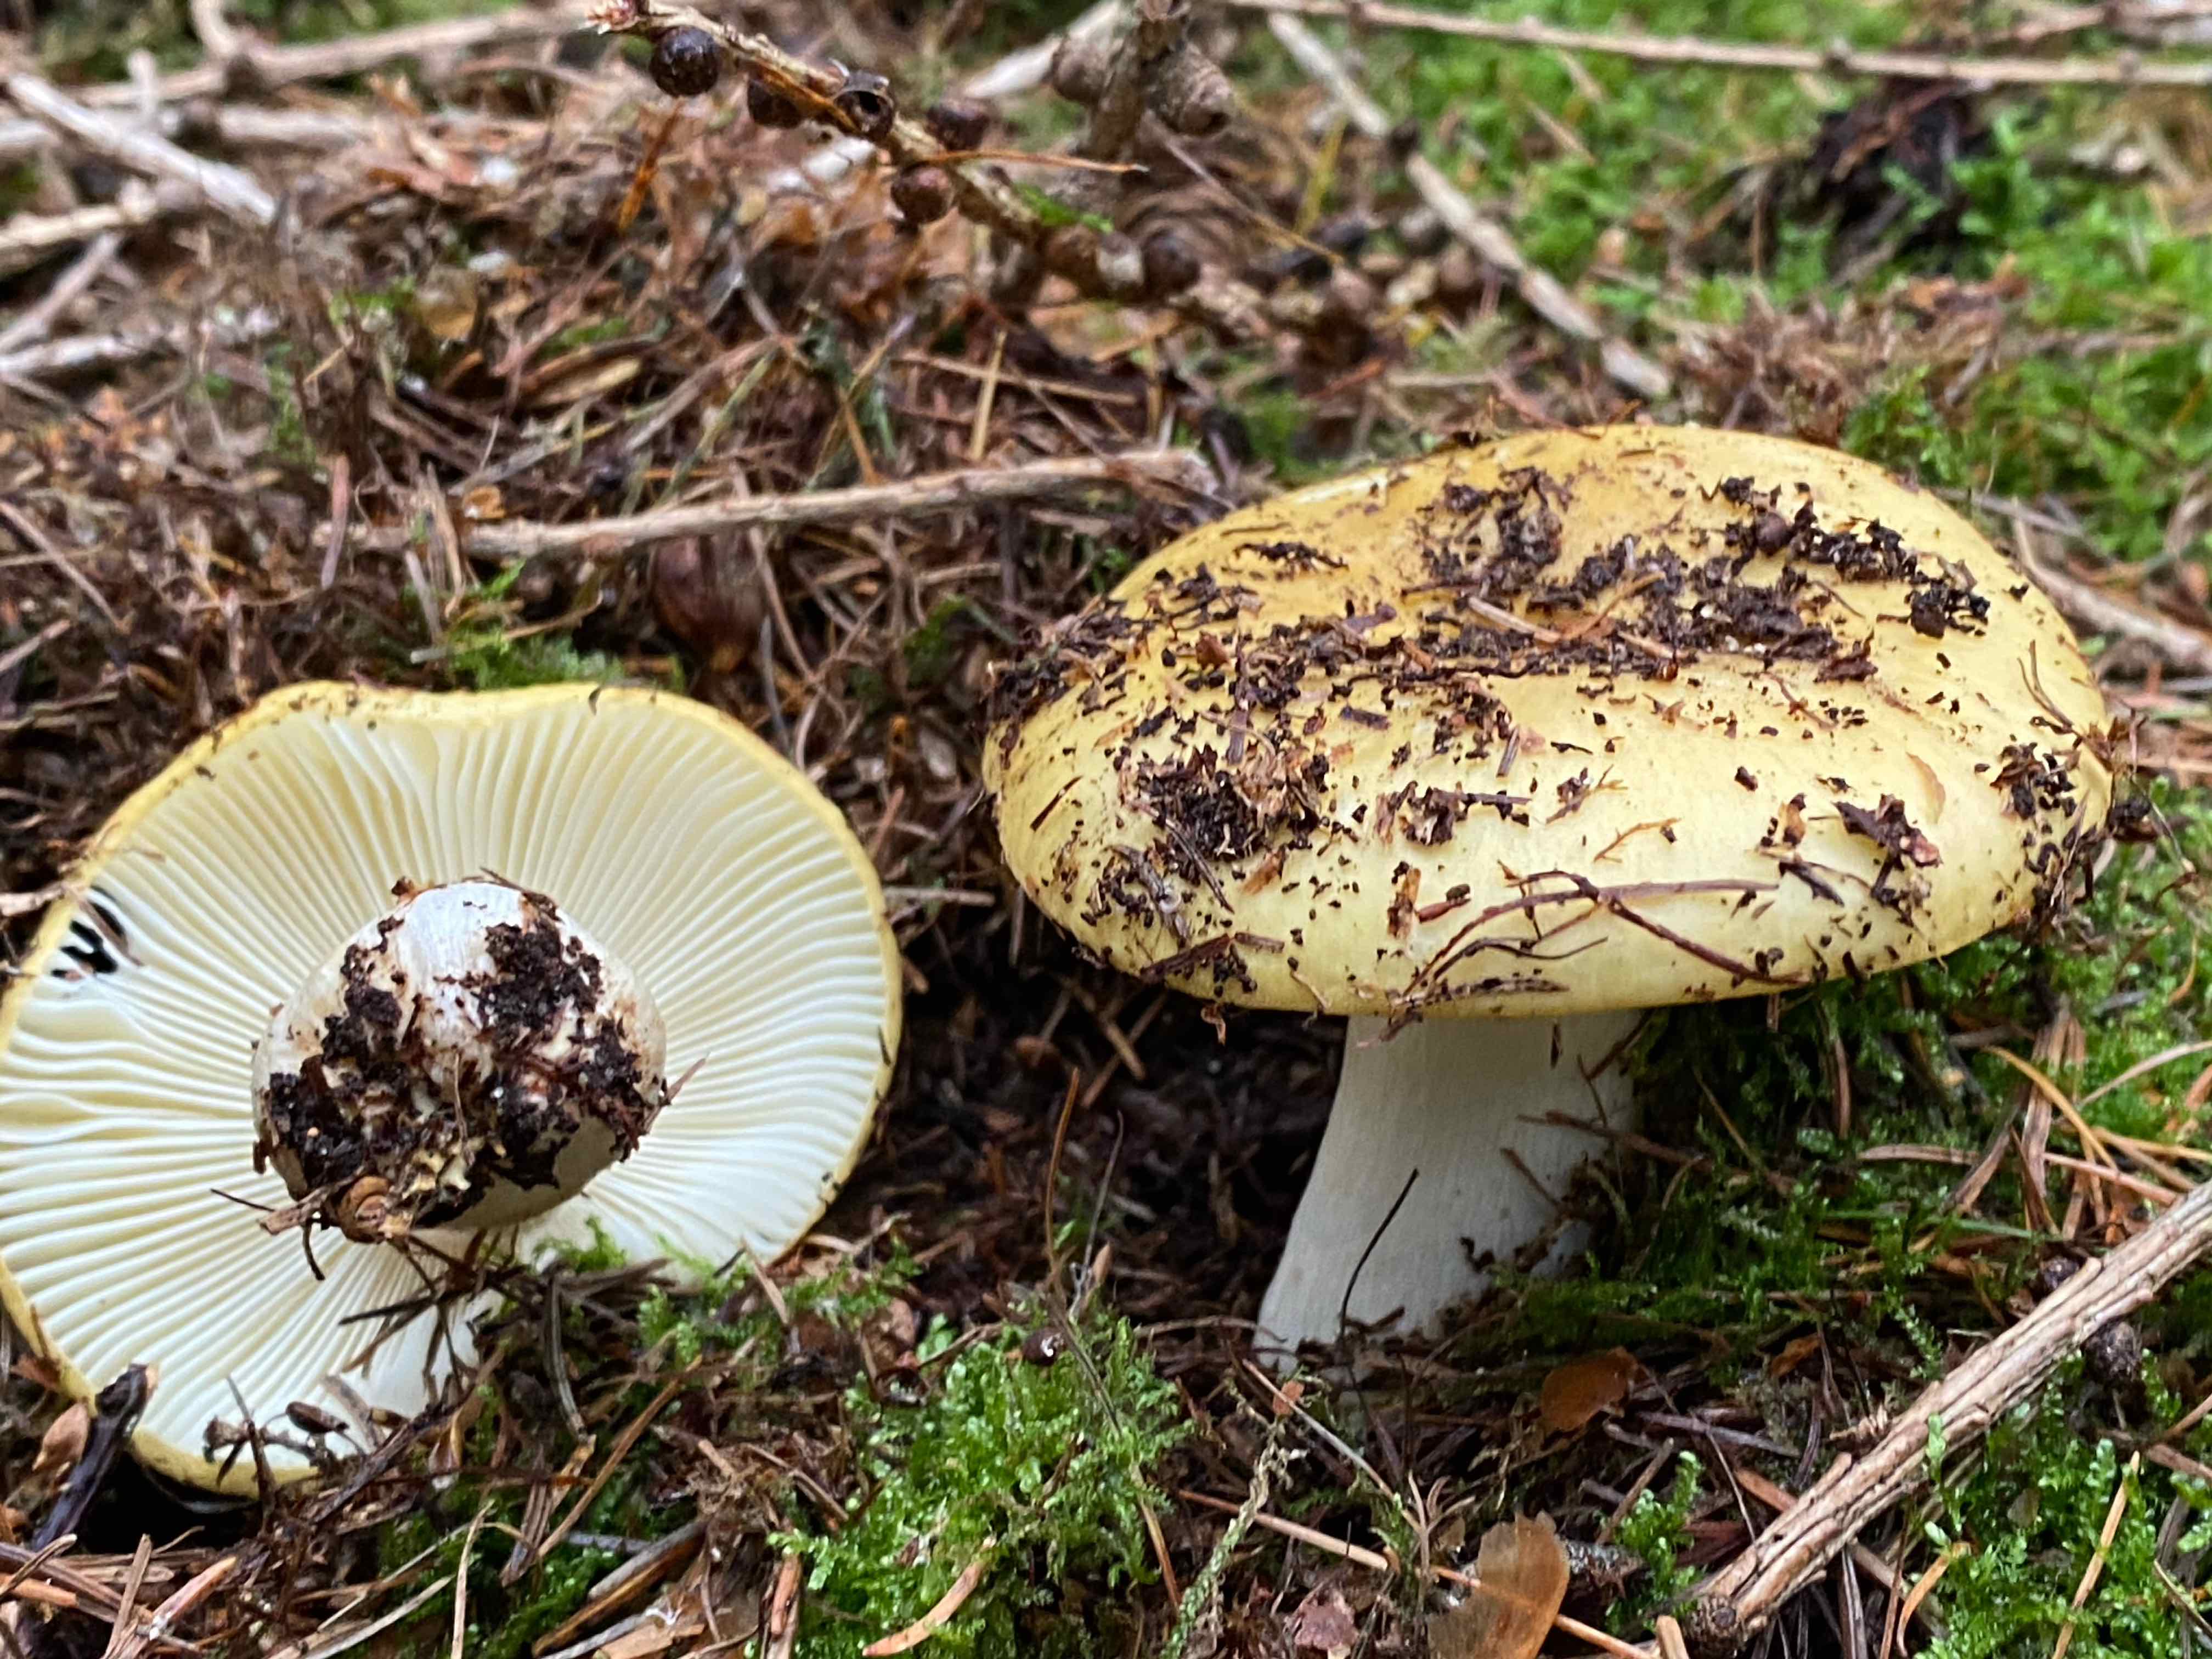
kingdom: Fungi
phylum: Basidiomycota
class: Agaricomycetes
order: Russulales
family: Russulaceae
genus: Russula
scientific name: Russula ochroleuca
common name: okkergul skørhat
